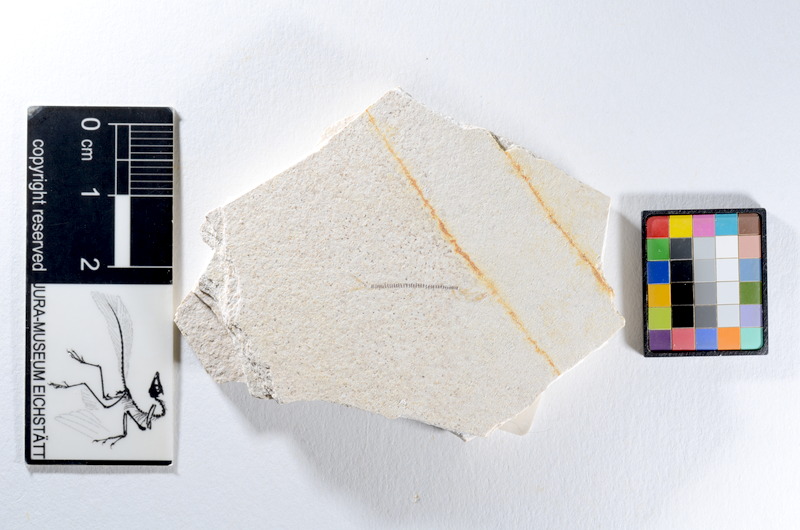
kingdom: Animalia
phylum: Chordata
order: Salmoniformes
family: Orthogonikleithridae
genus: Orthogonikleithrus
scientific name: Orthogonikleithrus hoelli
